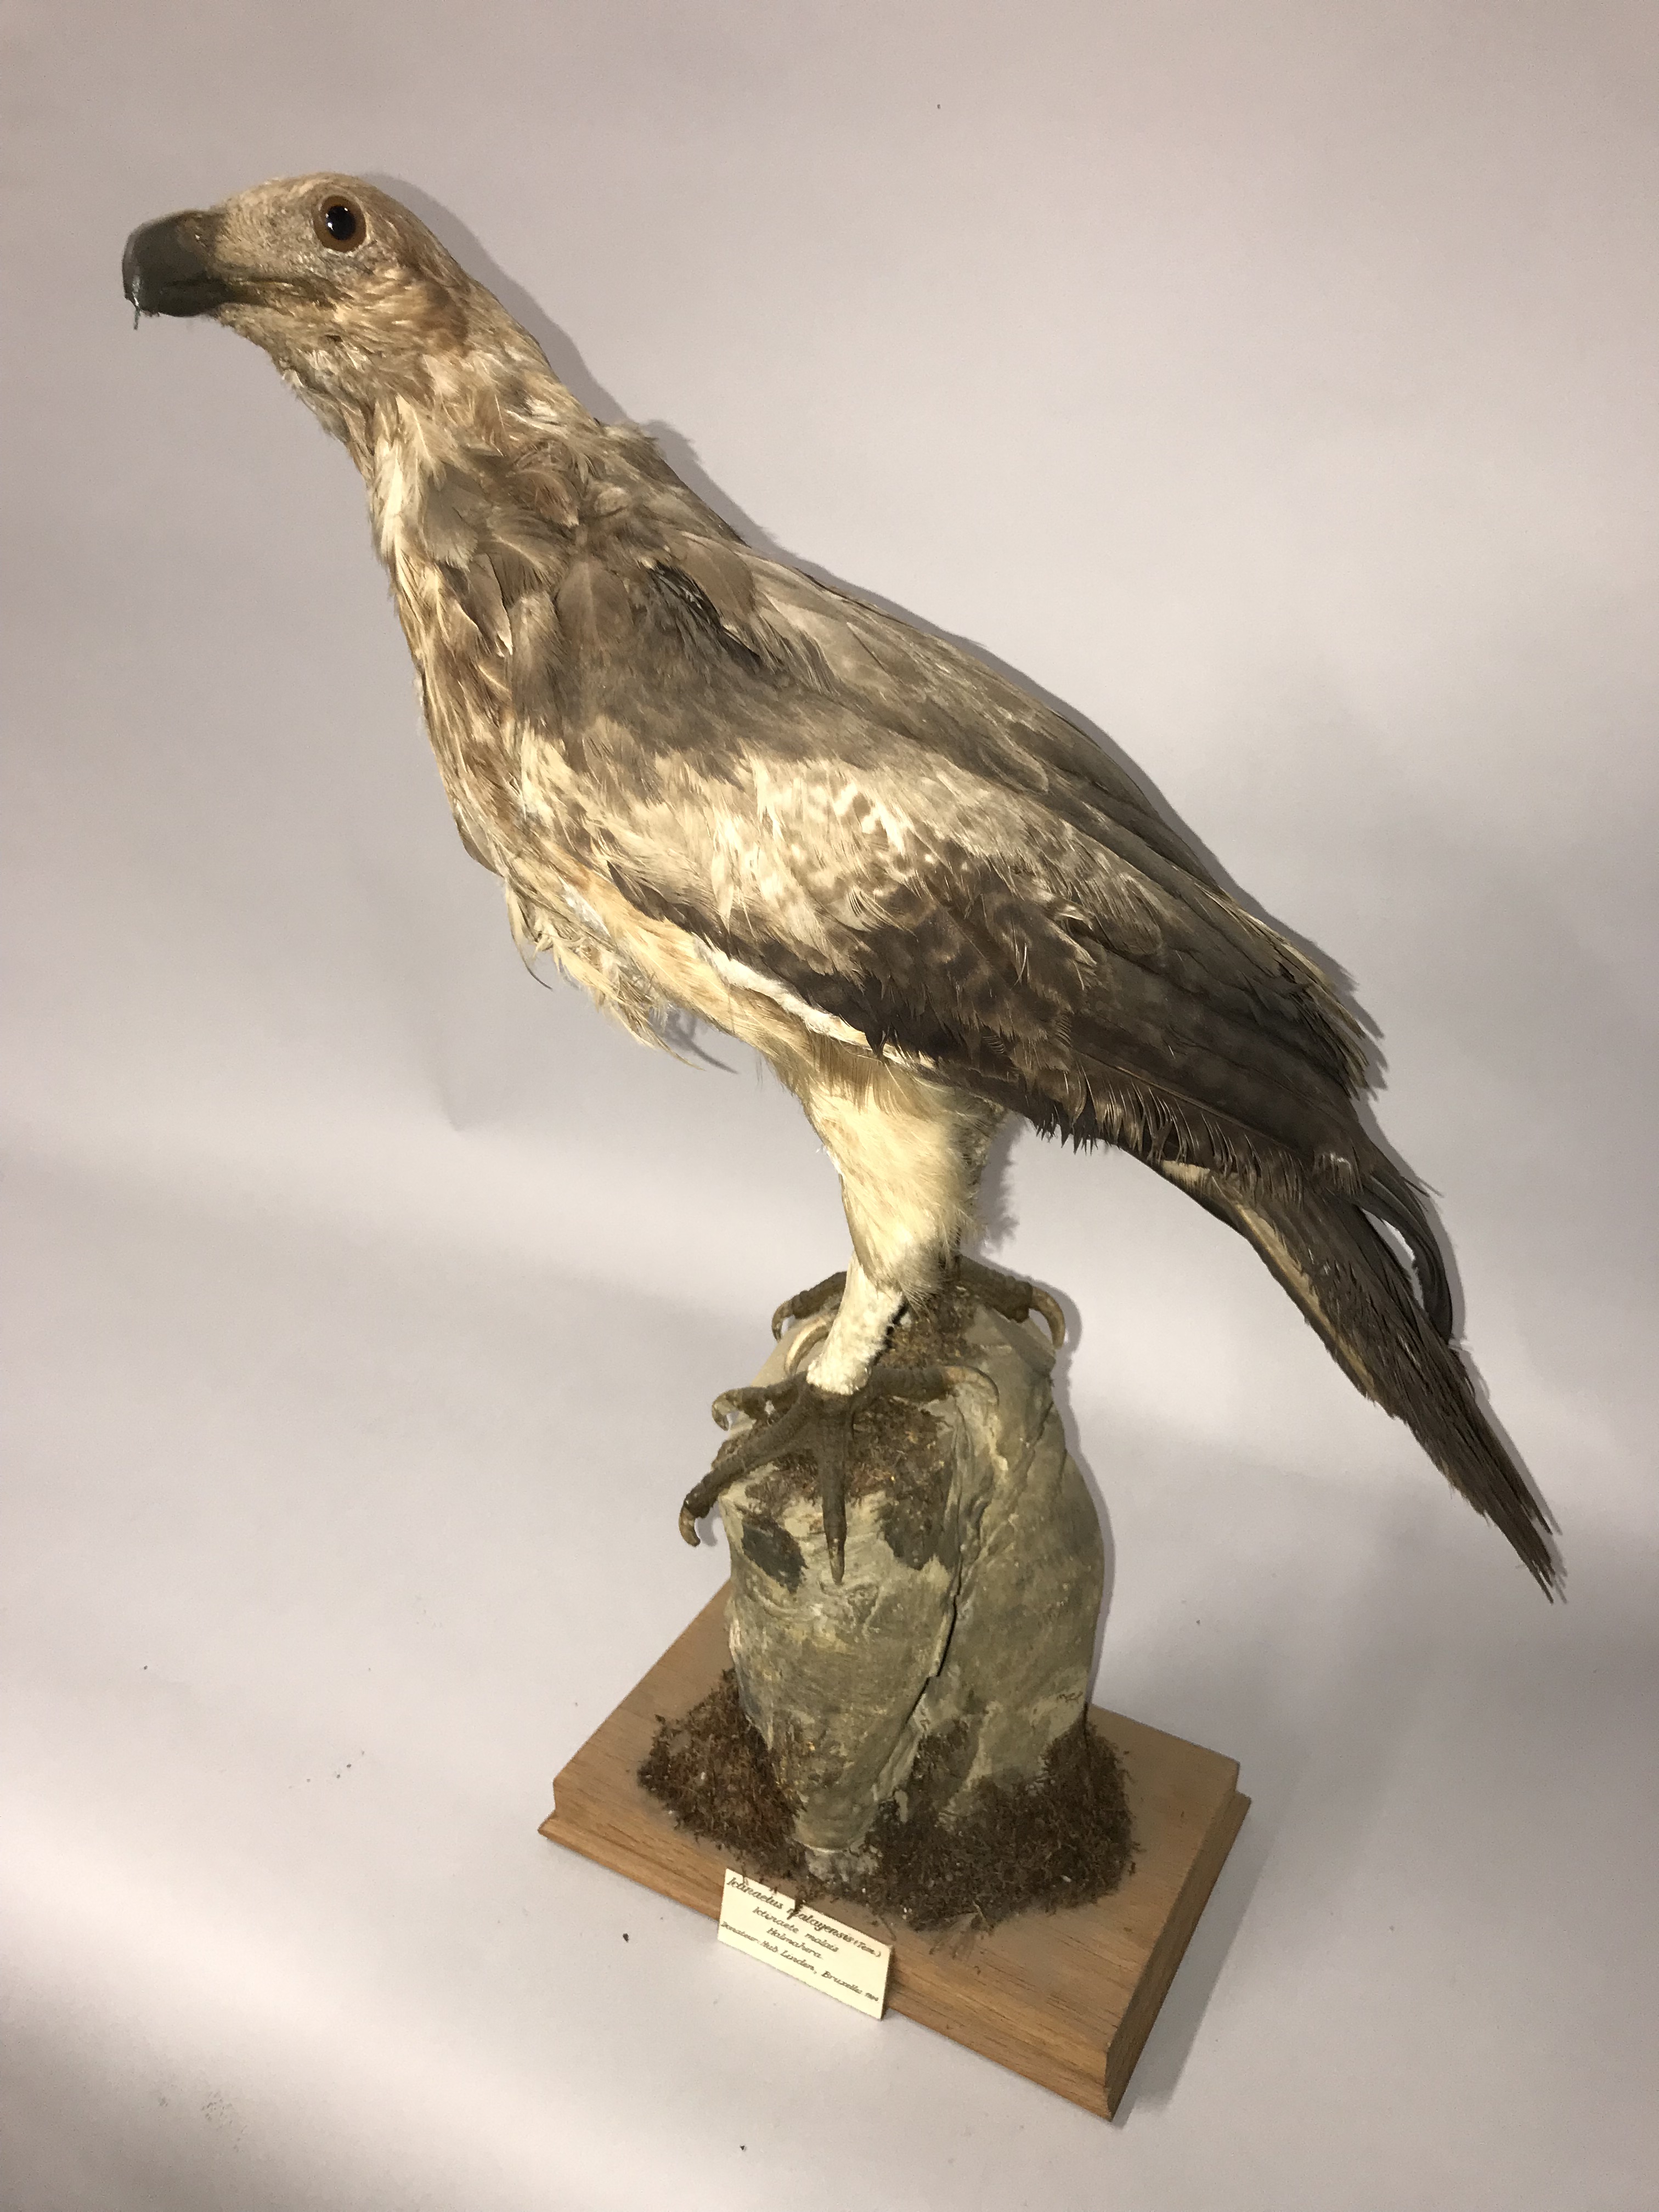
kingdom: Animalia
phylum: Chordata
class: Aves
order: Accipitriformes
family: Accipitridae
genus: Aquila
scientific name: Aquila gurneyi
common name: Gurney's eagle
